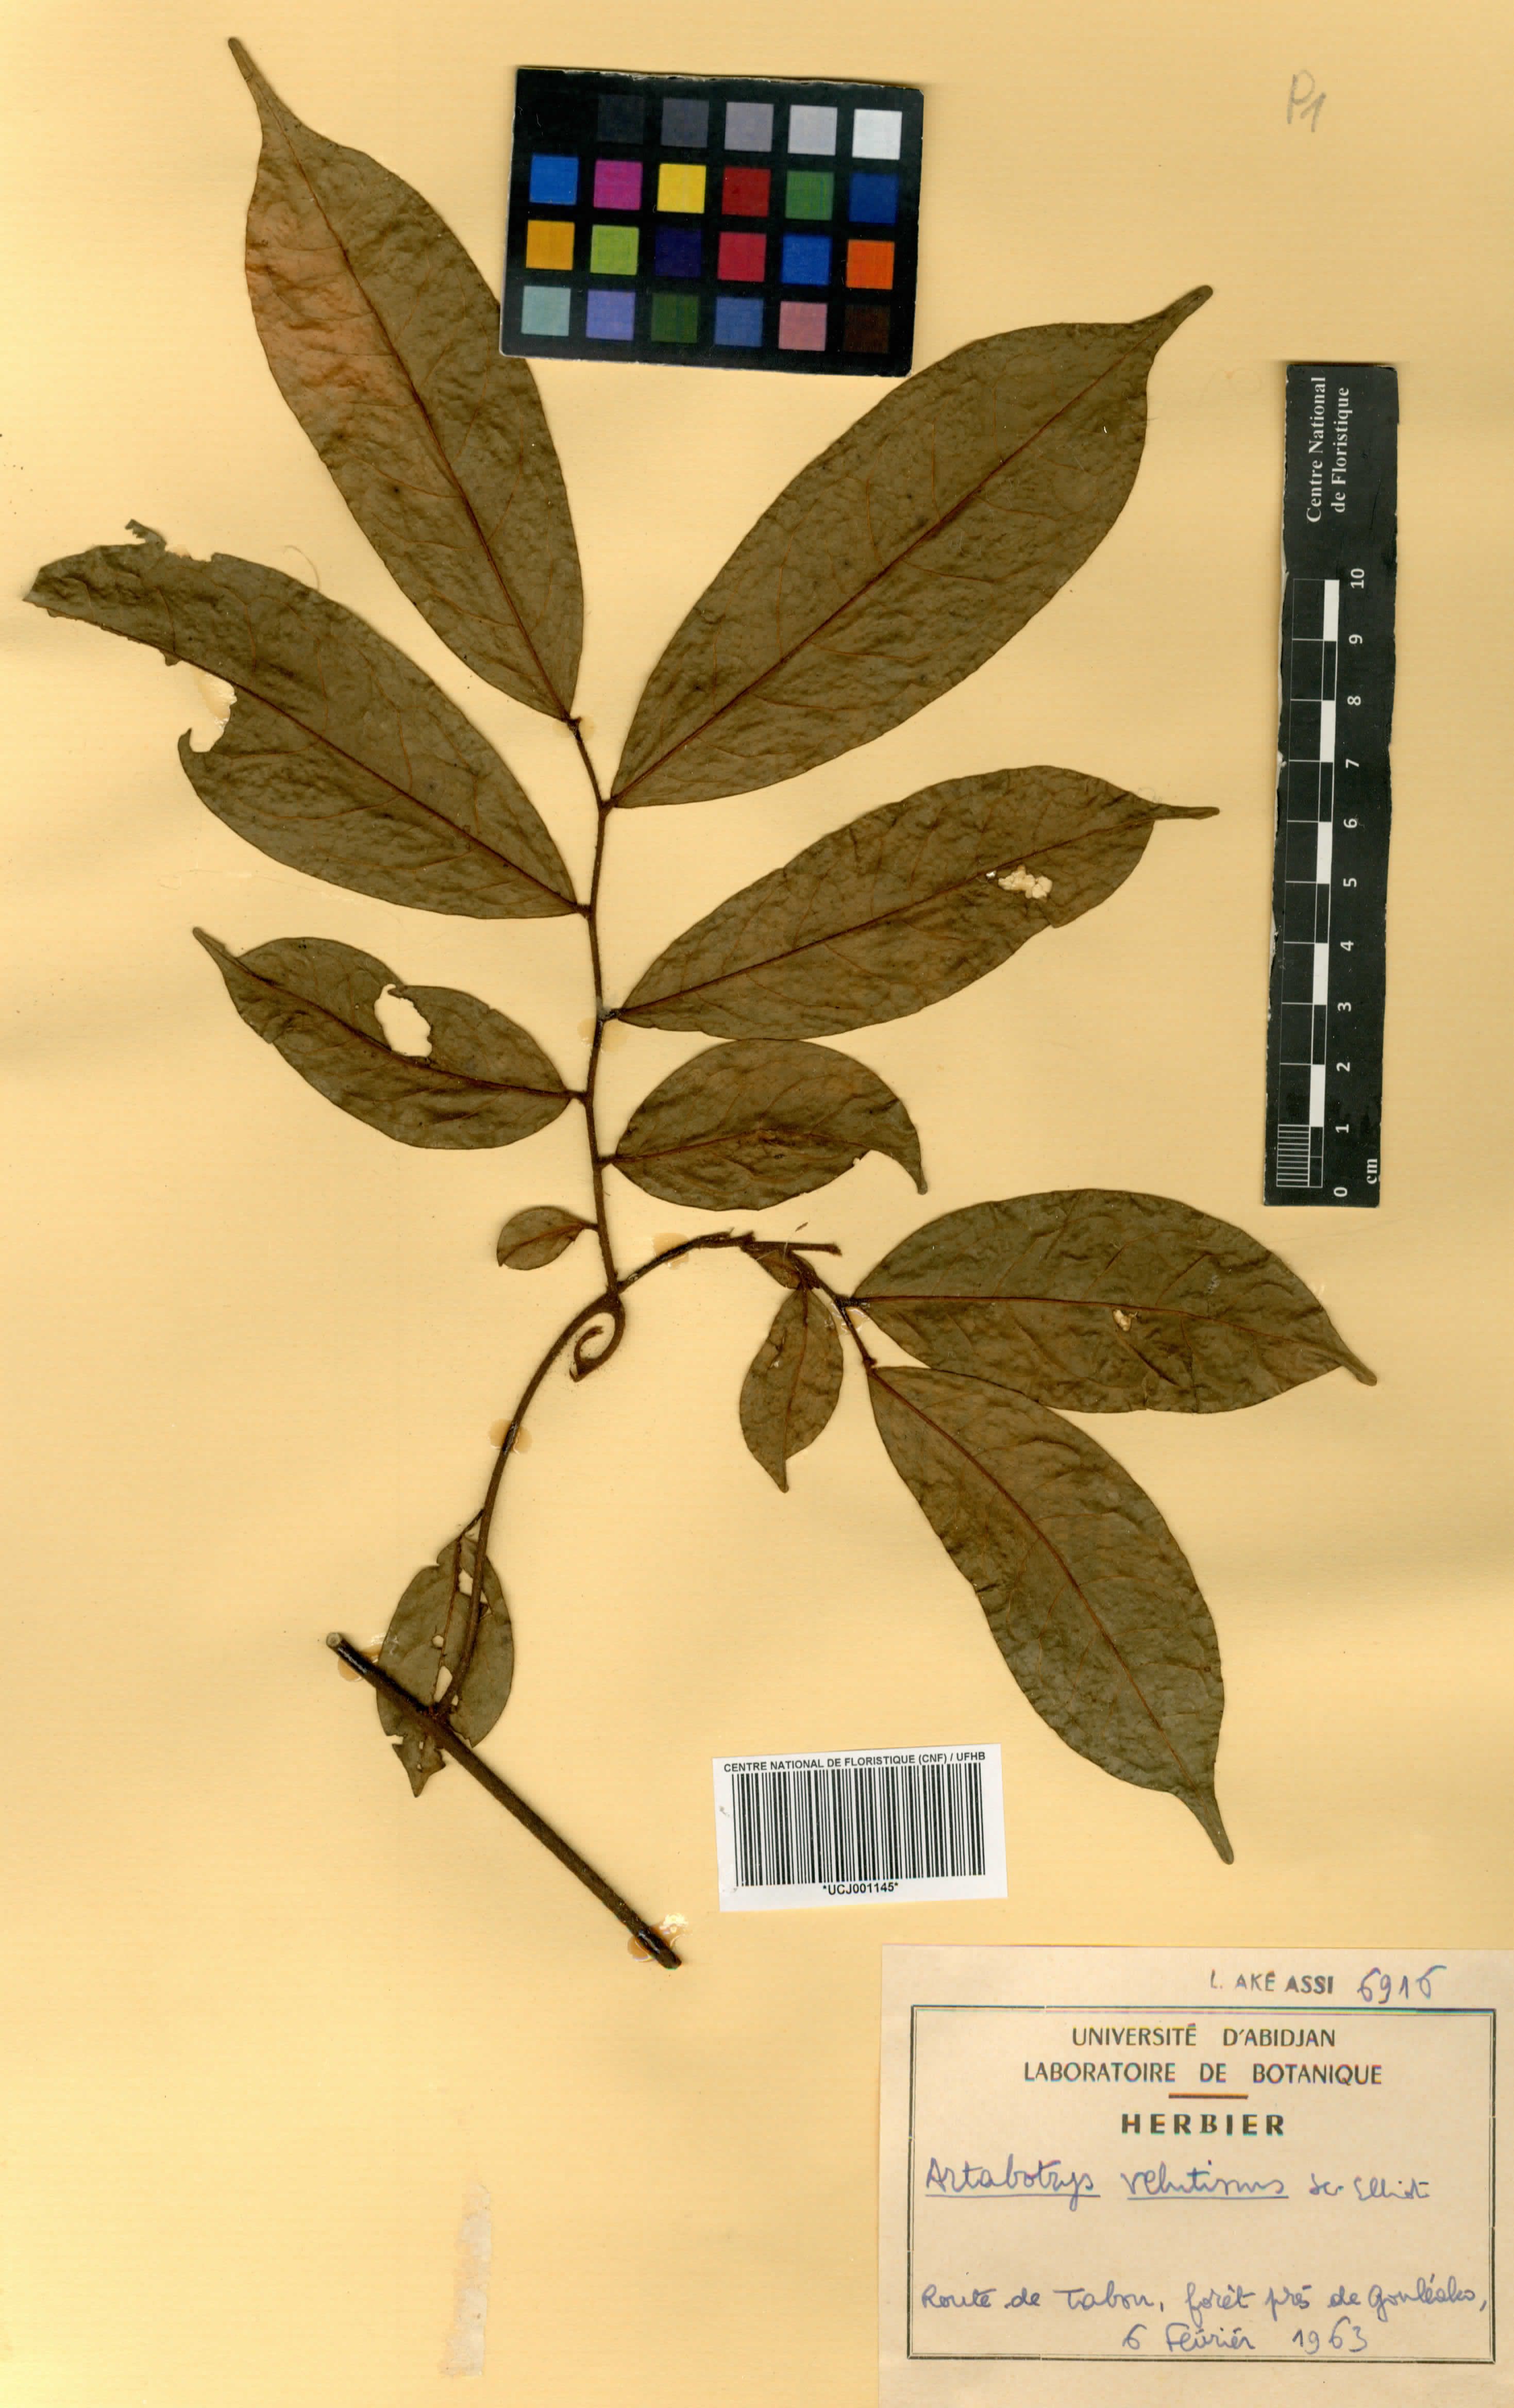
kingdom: Plantae
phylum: Tracheophyta
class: Magnoliopsida
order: Magnoliales
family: Annonaceae
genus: Artabotrys
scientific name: Artabotrys velutinus
